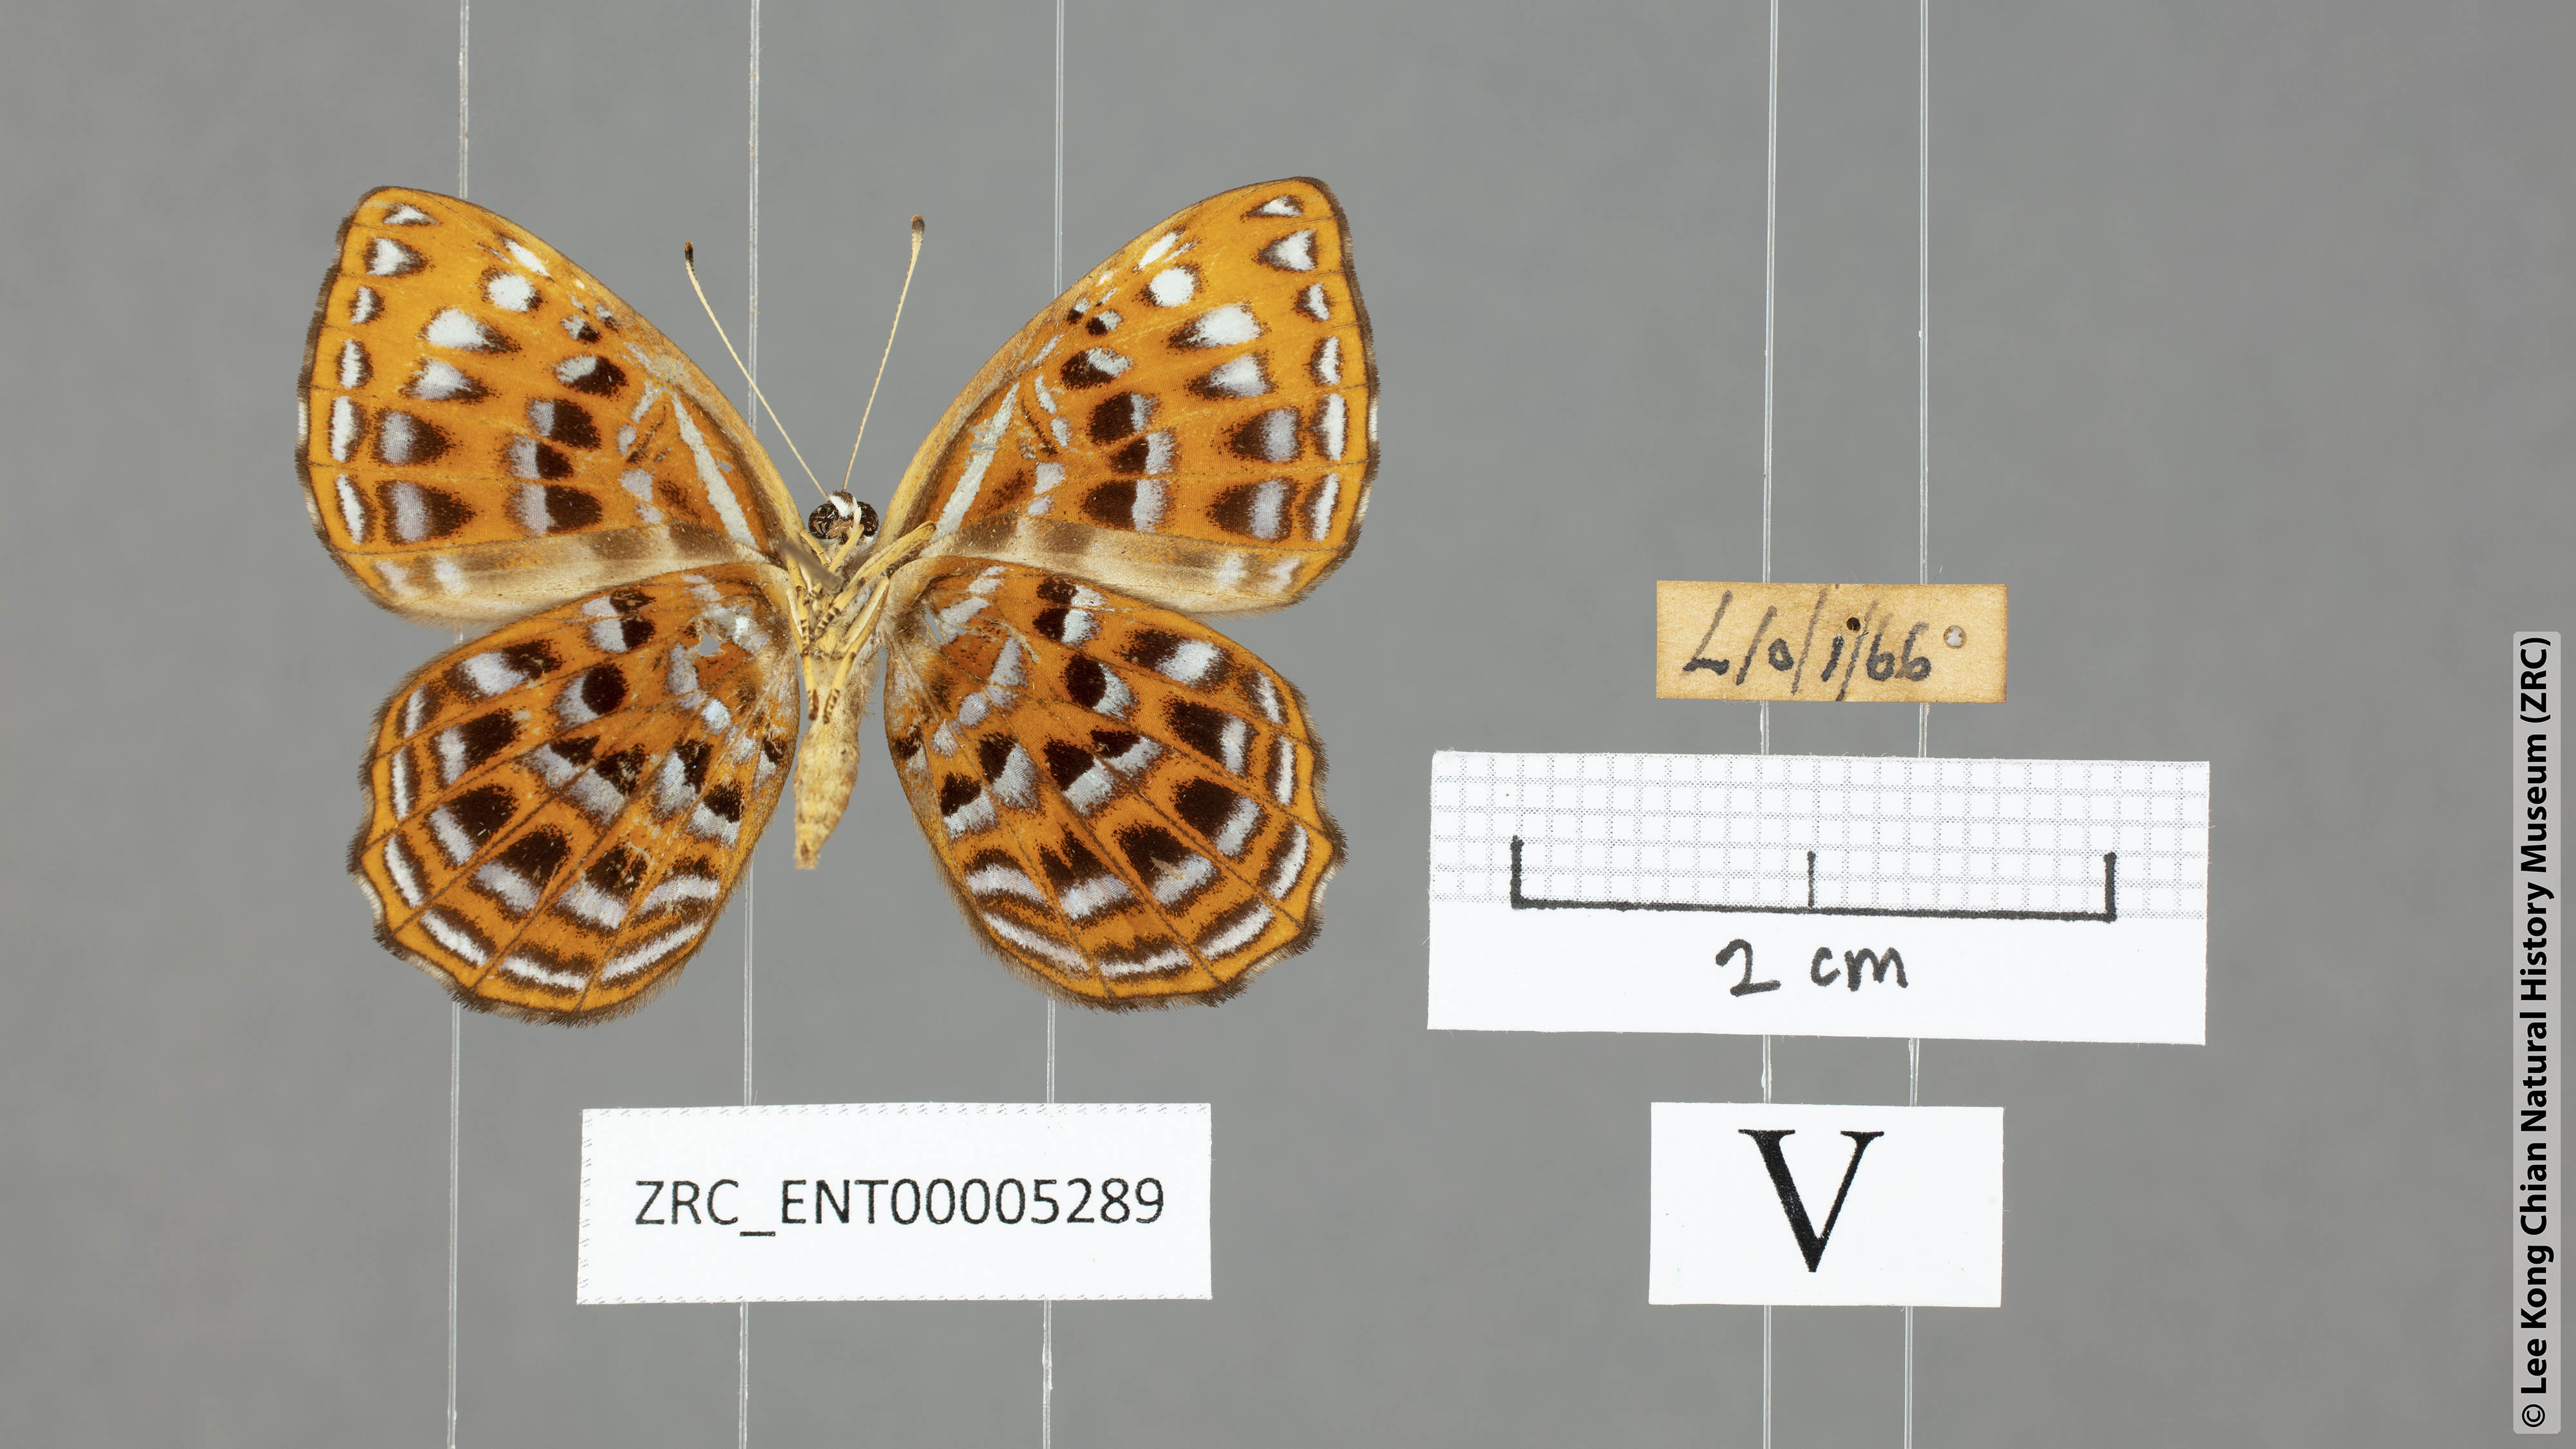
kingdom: Animalia
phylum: Arthropoda
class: Insecta
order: Lepidoptera
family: Riodinidae
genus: Laxita
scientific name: Laxita thuisto
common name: Lesser harlequin
